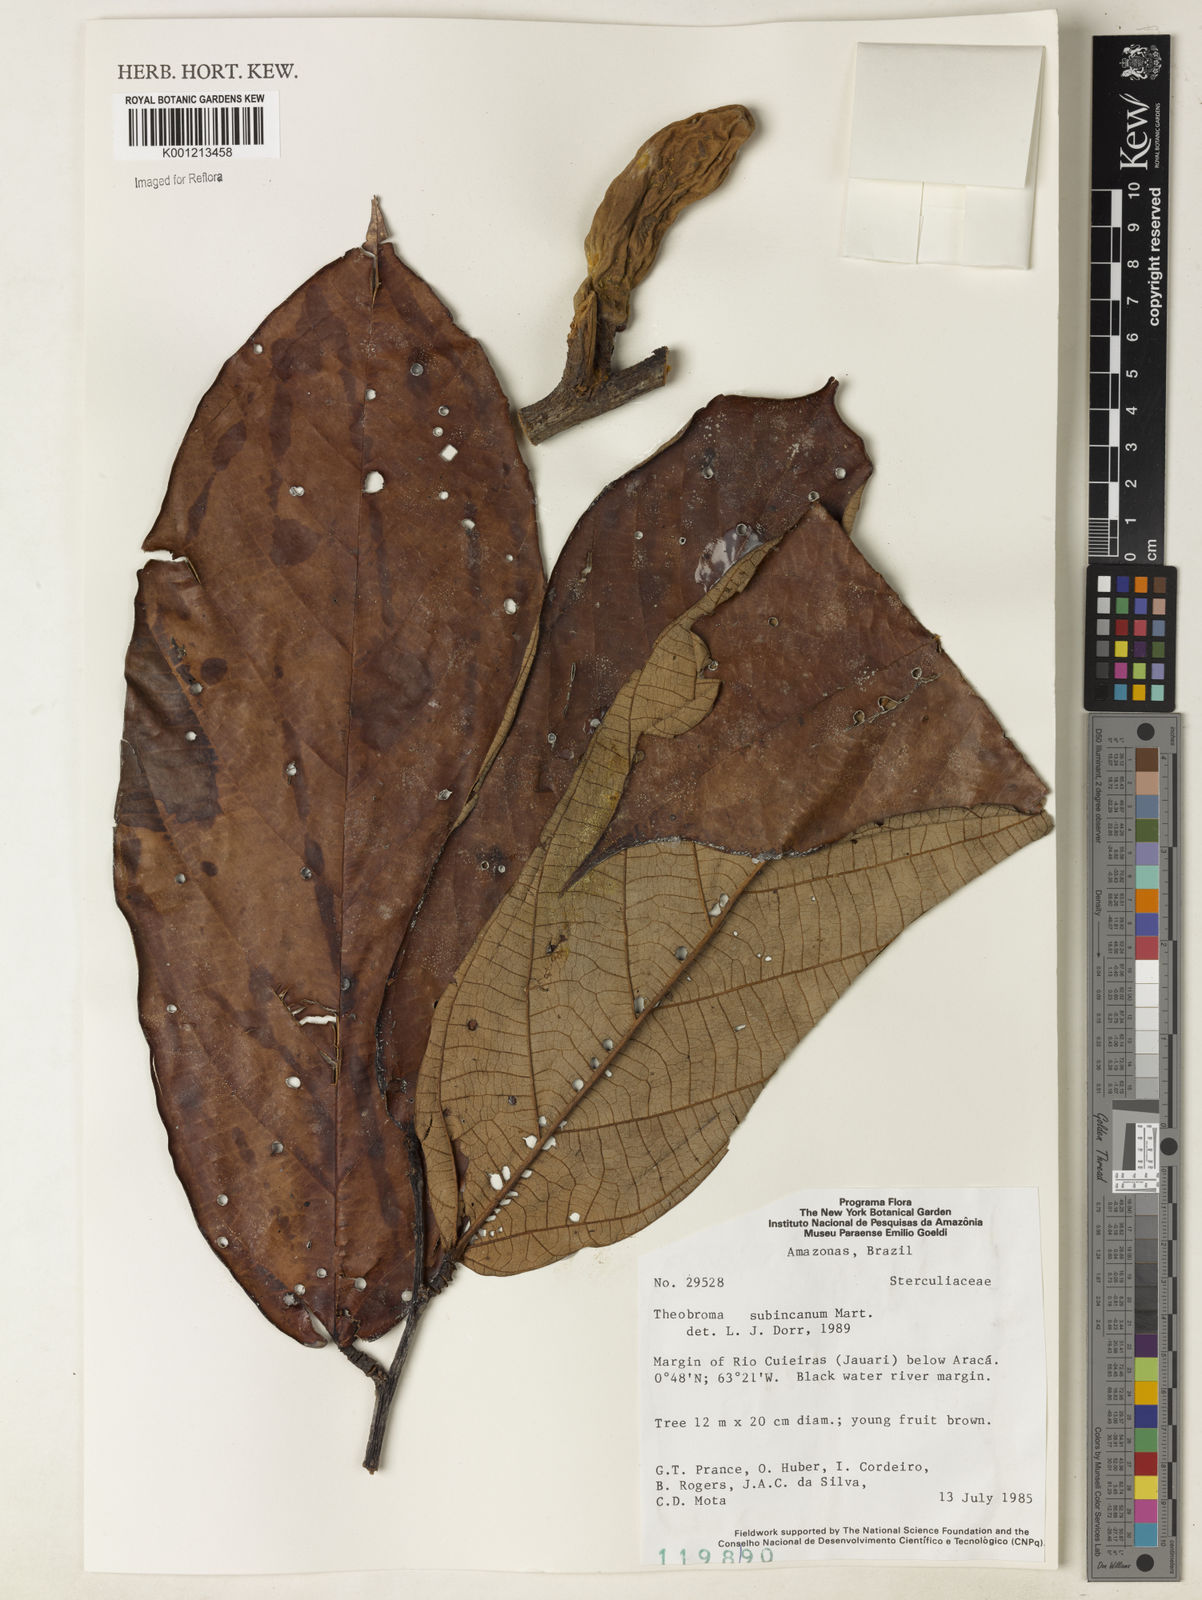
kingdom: Plantae
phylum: Tracheophyta
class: Magnoliopsida
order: Malvales
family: Malvaceae
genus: Theobroma
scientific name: Theobroma subincanum
